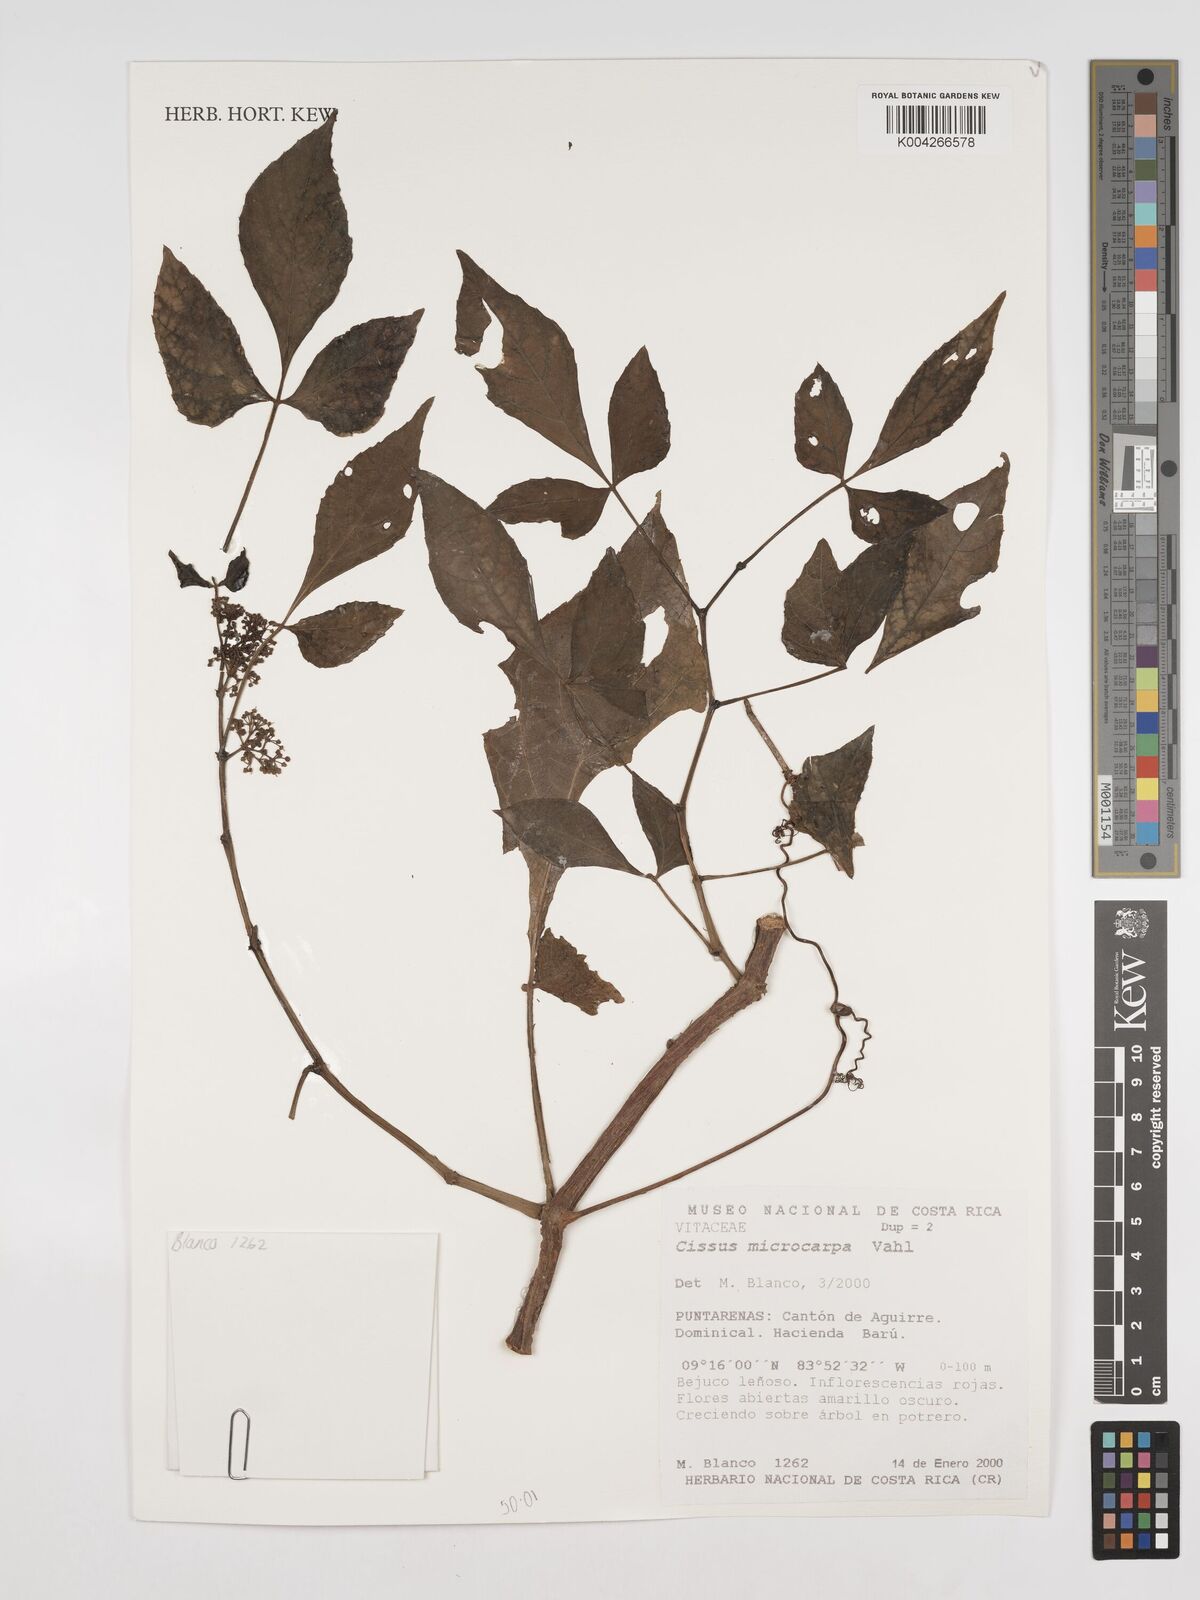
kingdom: Plantae
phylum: Tracheophyta
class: Magnoliopsida
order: Vitales
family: Vitaceae
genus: Cissus
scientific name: Cissus microcarpa
